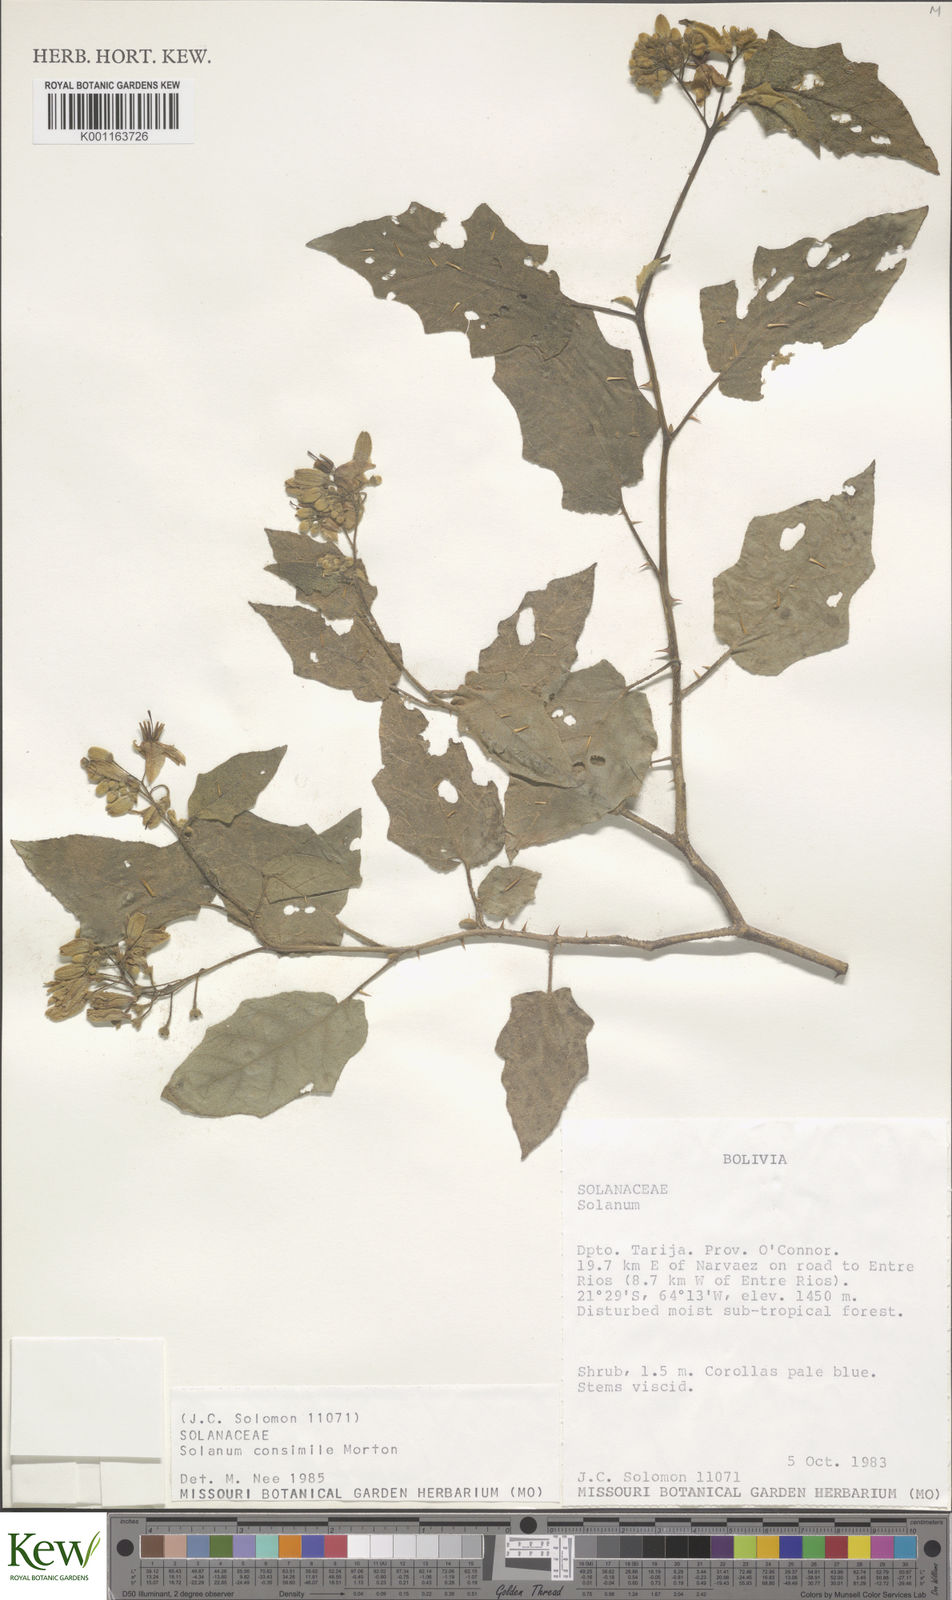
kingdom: Plantae
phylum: Tracheophyta
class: Magnoliopsida
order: Solanales
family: Solanaceae
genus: Solanum
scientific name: Solanum consimile
